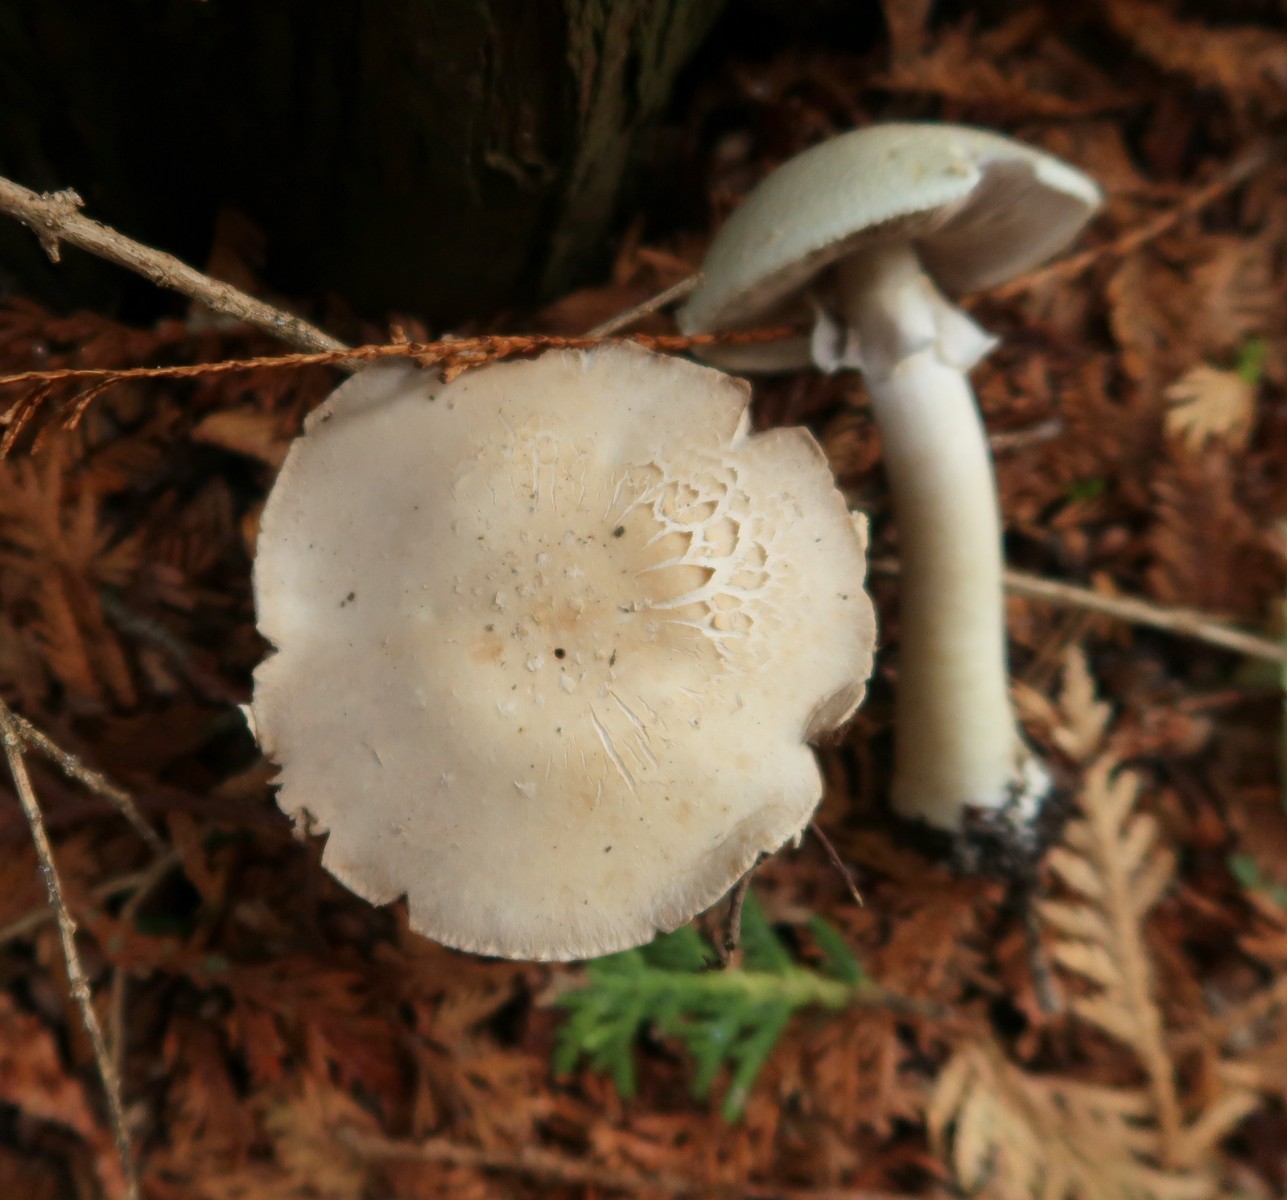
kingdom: Fungi
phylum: Basidiomycota
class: Agaricomycetes
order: Agaricales
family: Agaricaceae
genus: Agaricus
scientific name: Agaricus sylvicola
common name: gulhvid champignon
